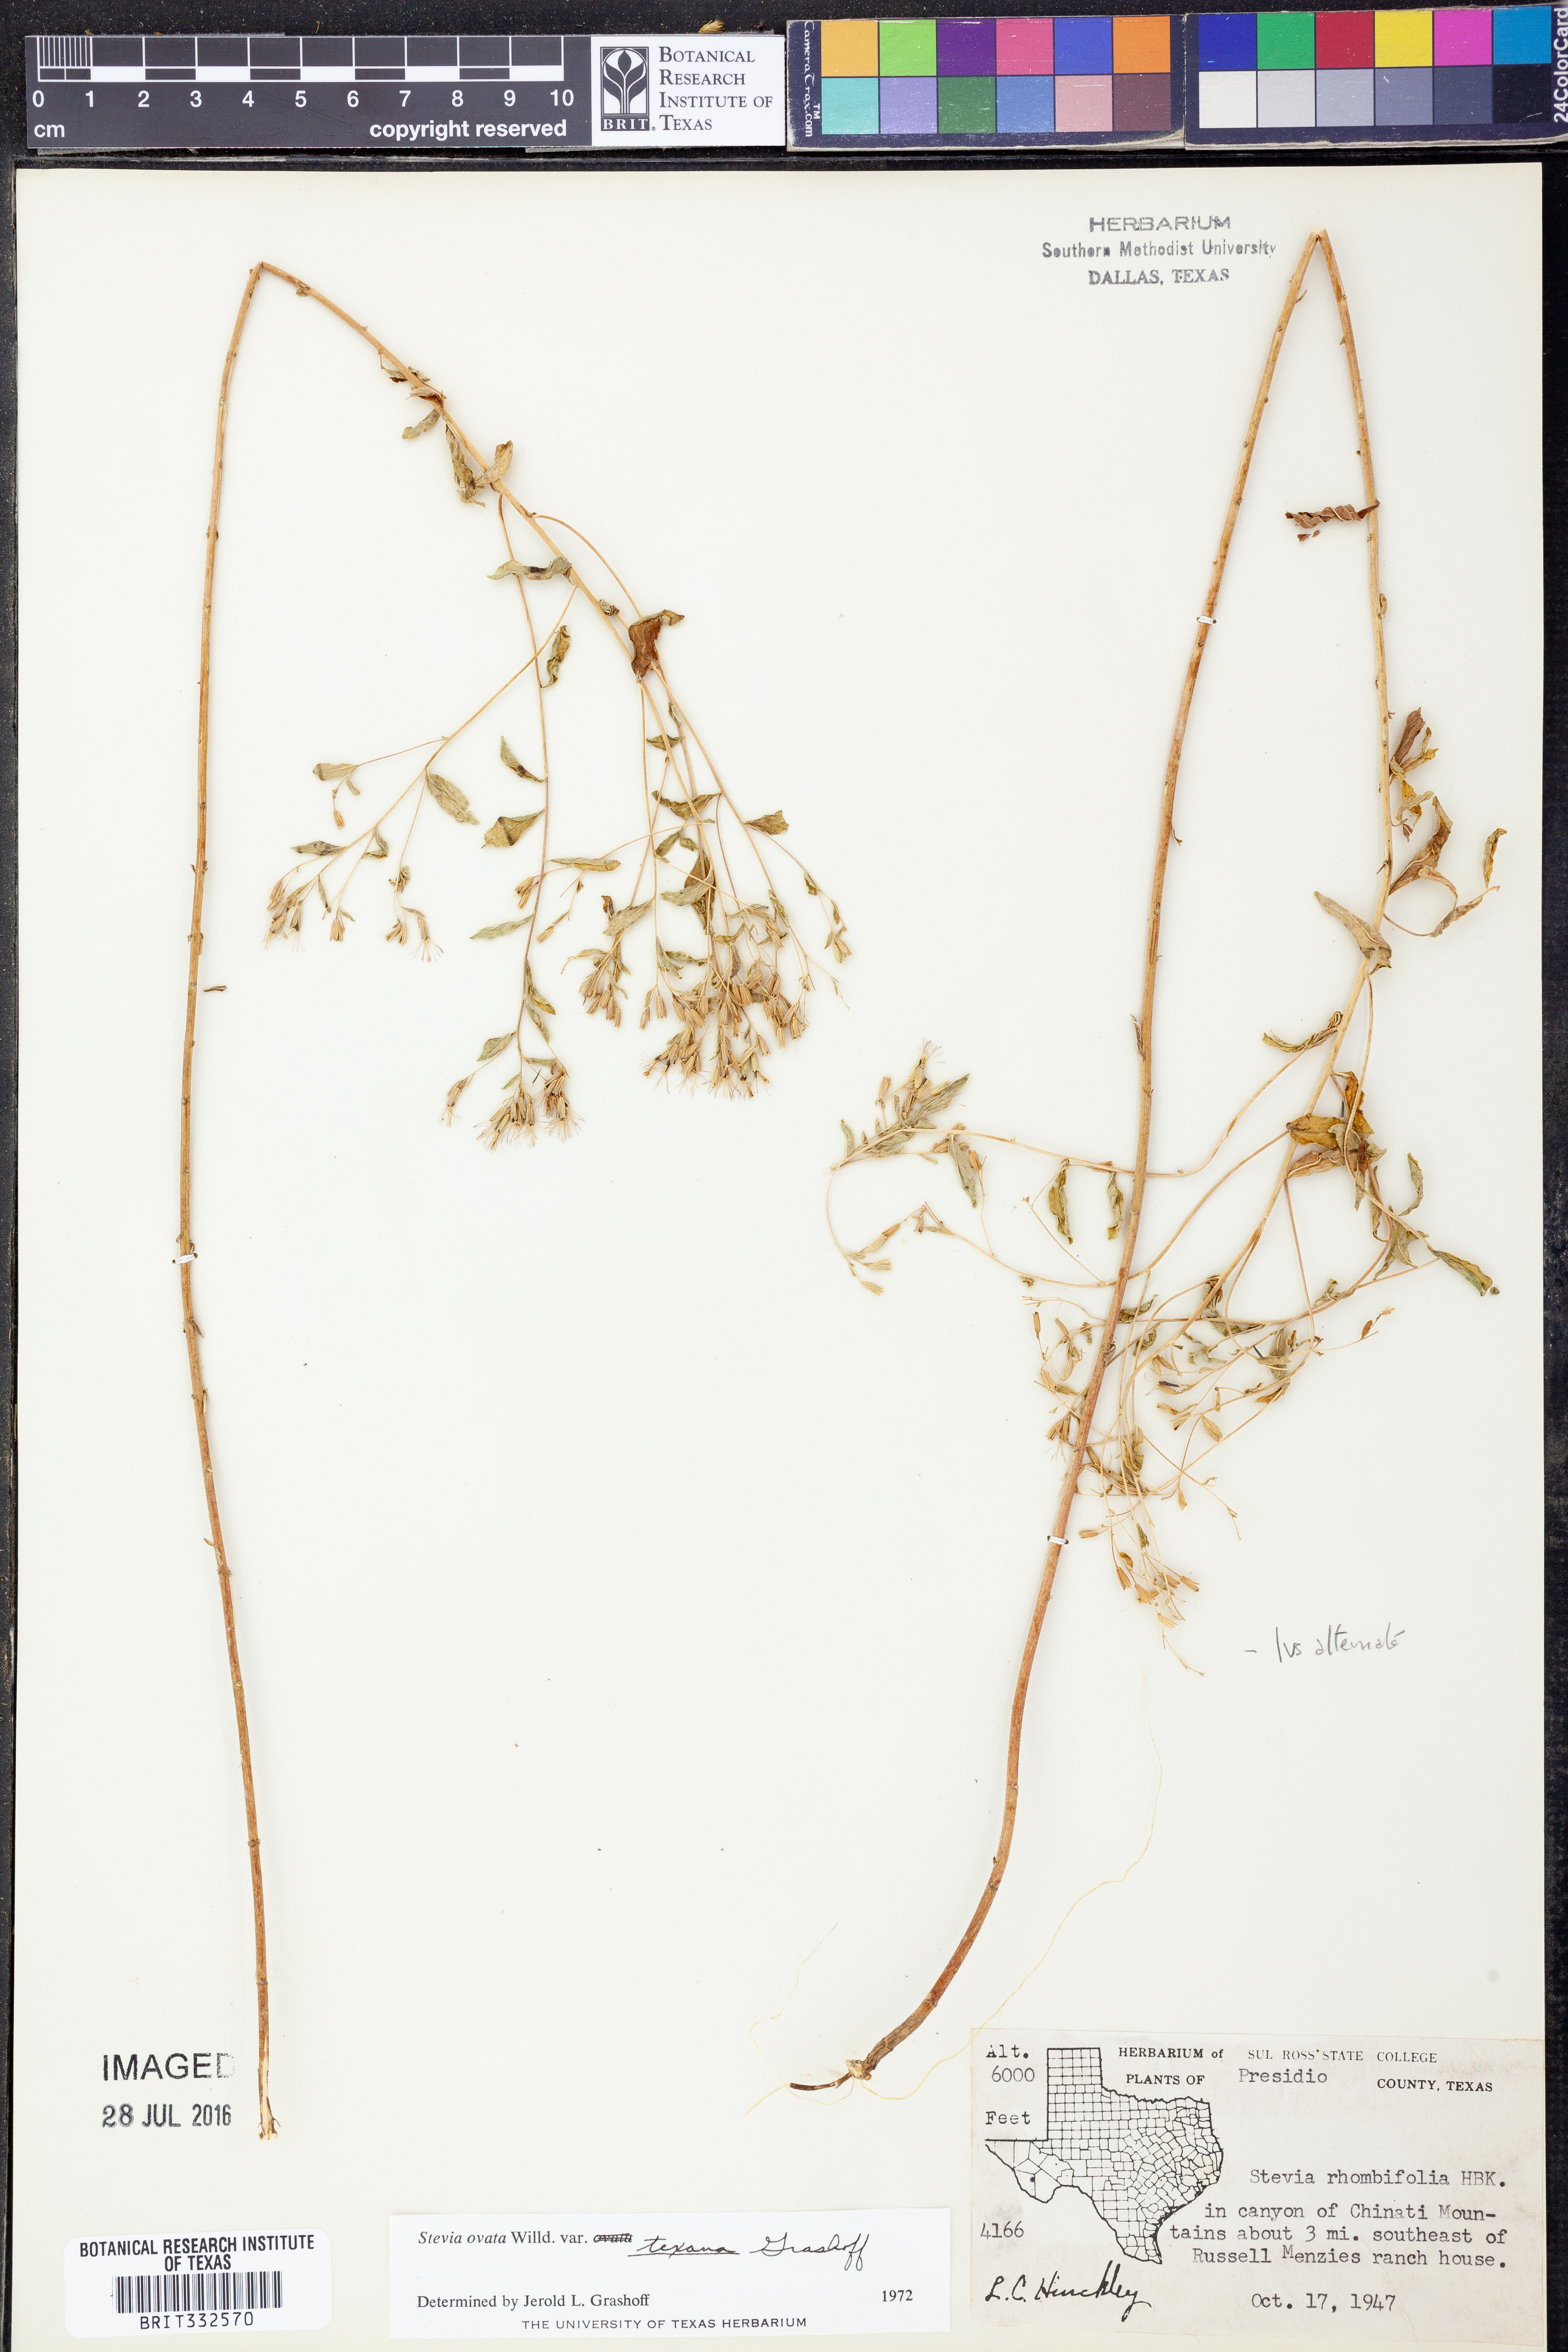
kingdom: Plantae
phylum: Tracheophyta
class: Magnoliopsida
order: Asterales
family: Asteraceae
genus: Stevia
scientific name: Stevia ovata
